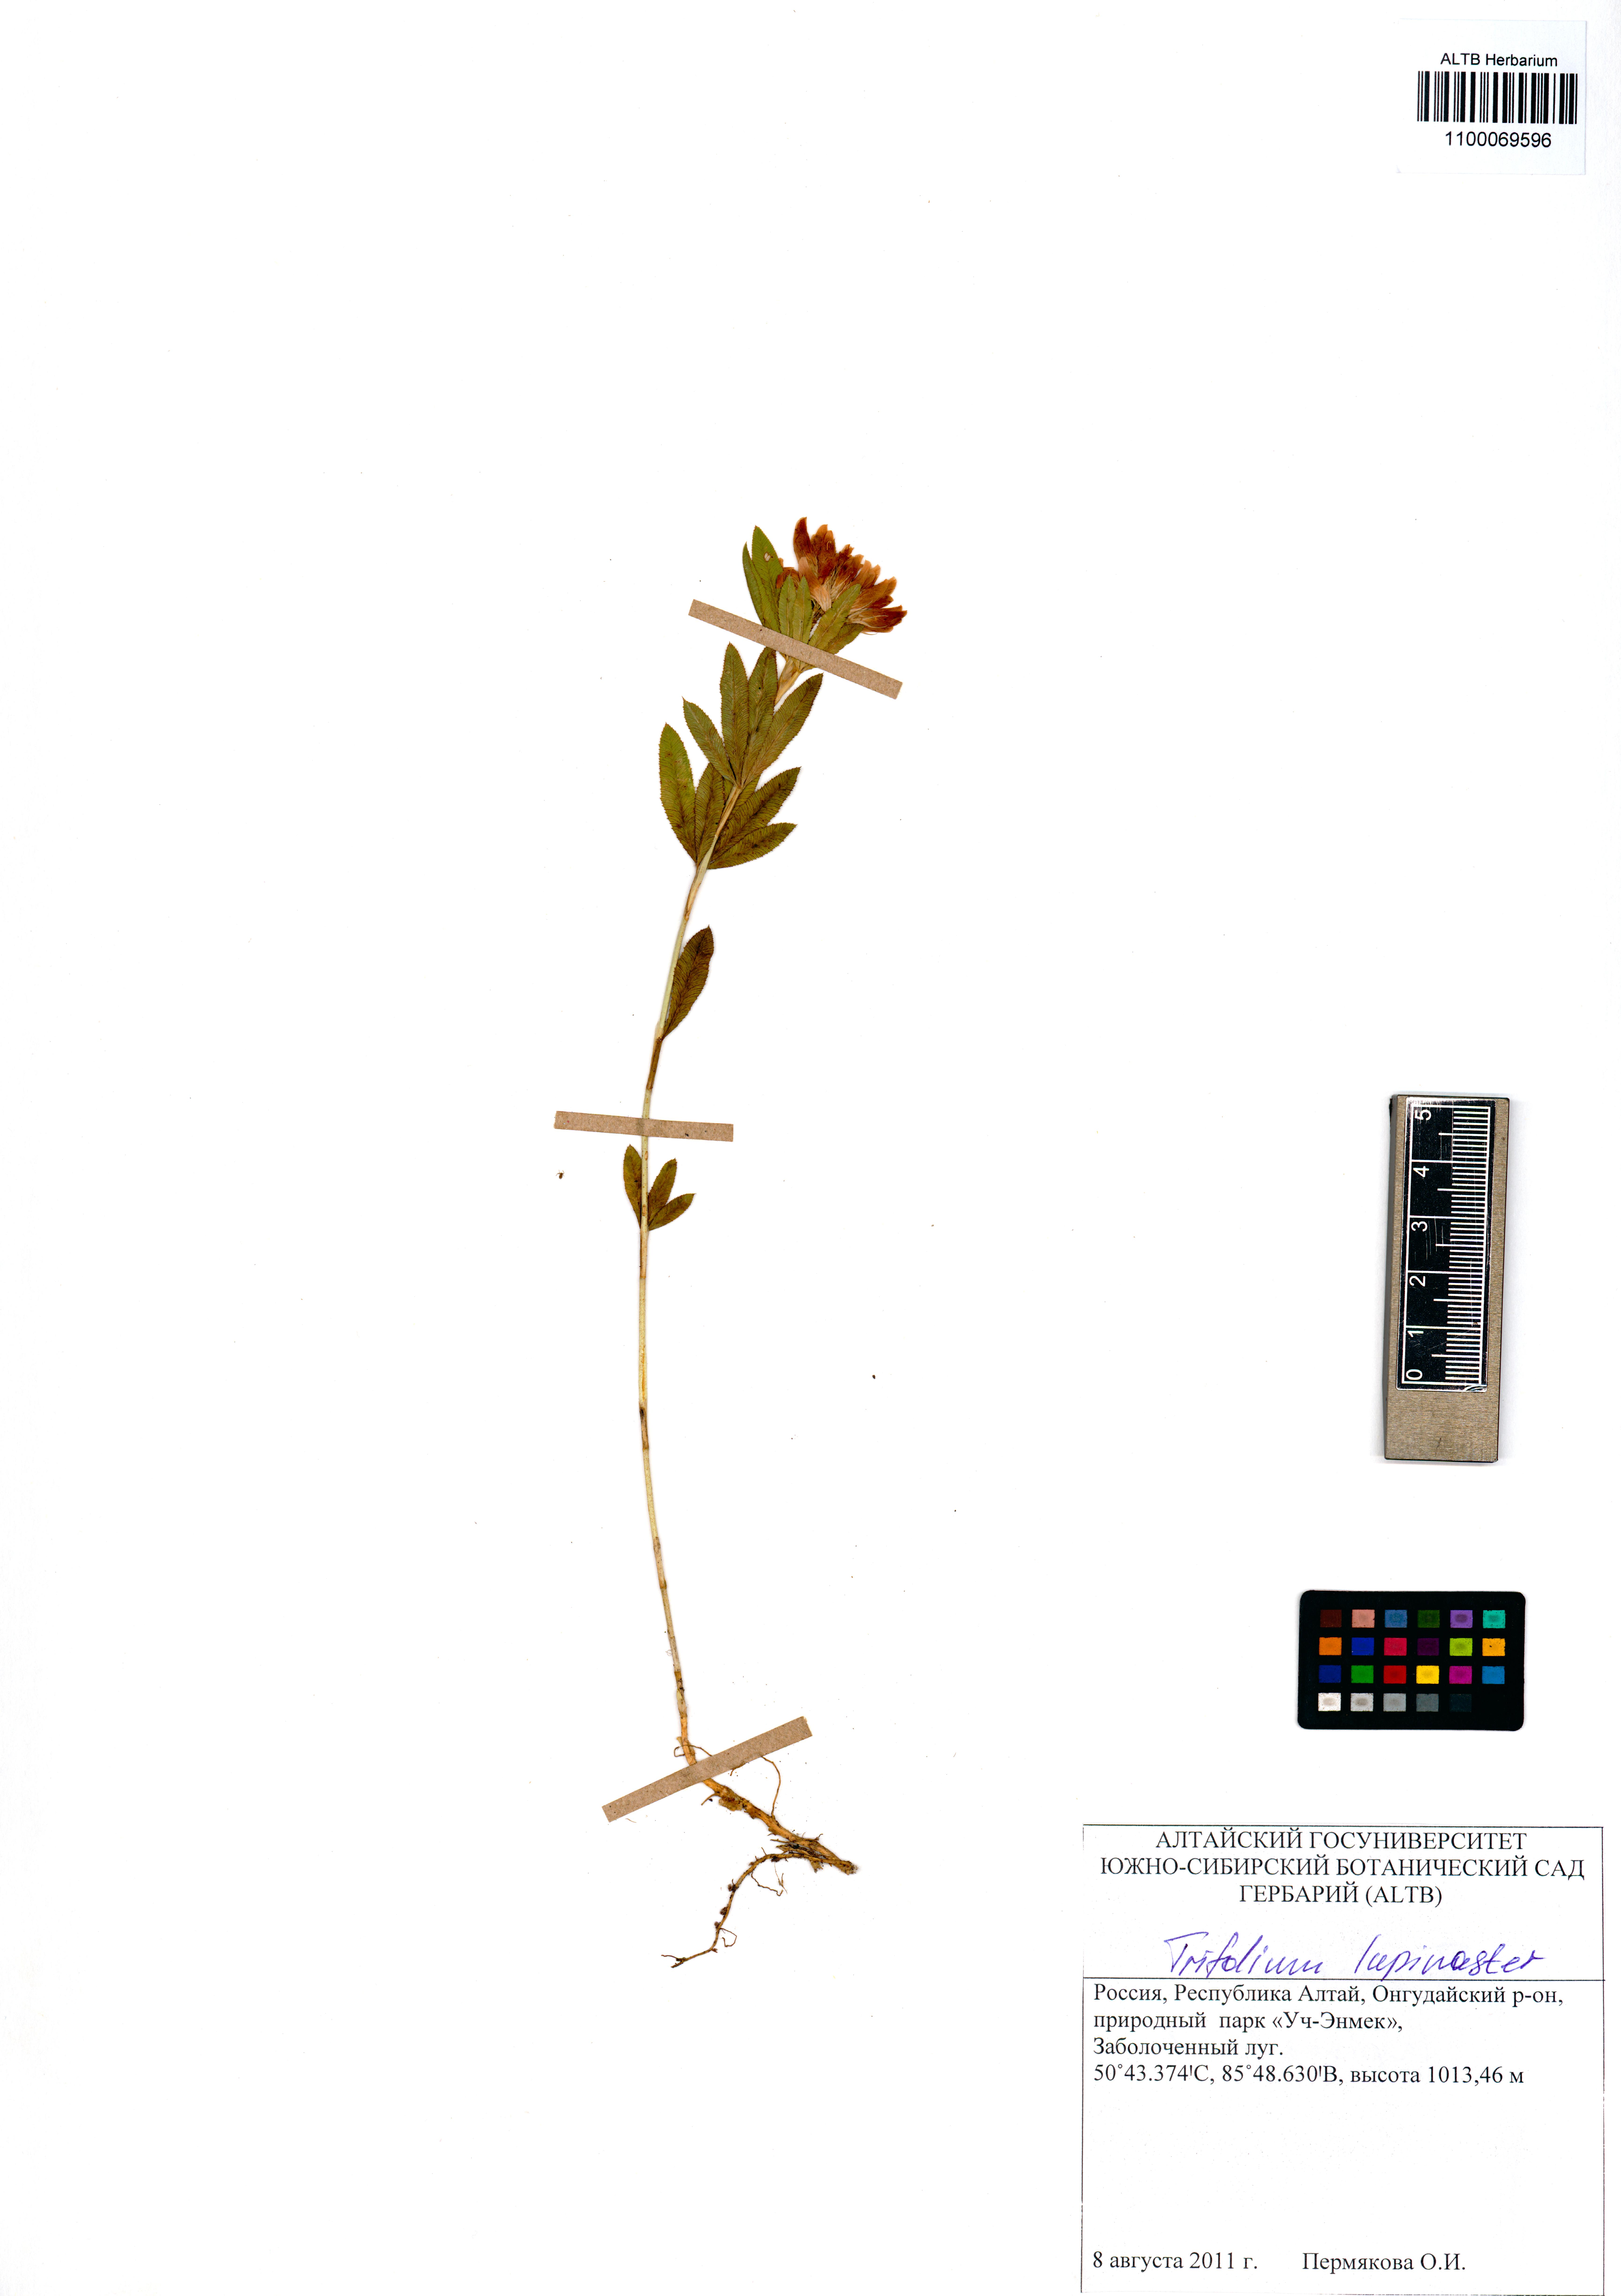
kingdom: Plantae
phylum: Tracheophyta
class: Magnoliopsida
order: Fabales
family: Fabaceae
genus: Trifolium
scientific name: Trifolium lupinaster
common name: Lupine clover
